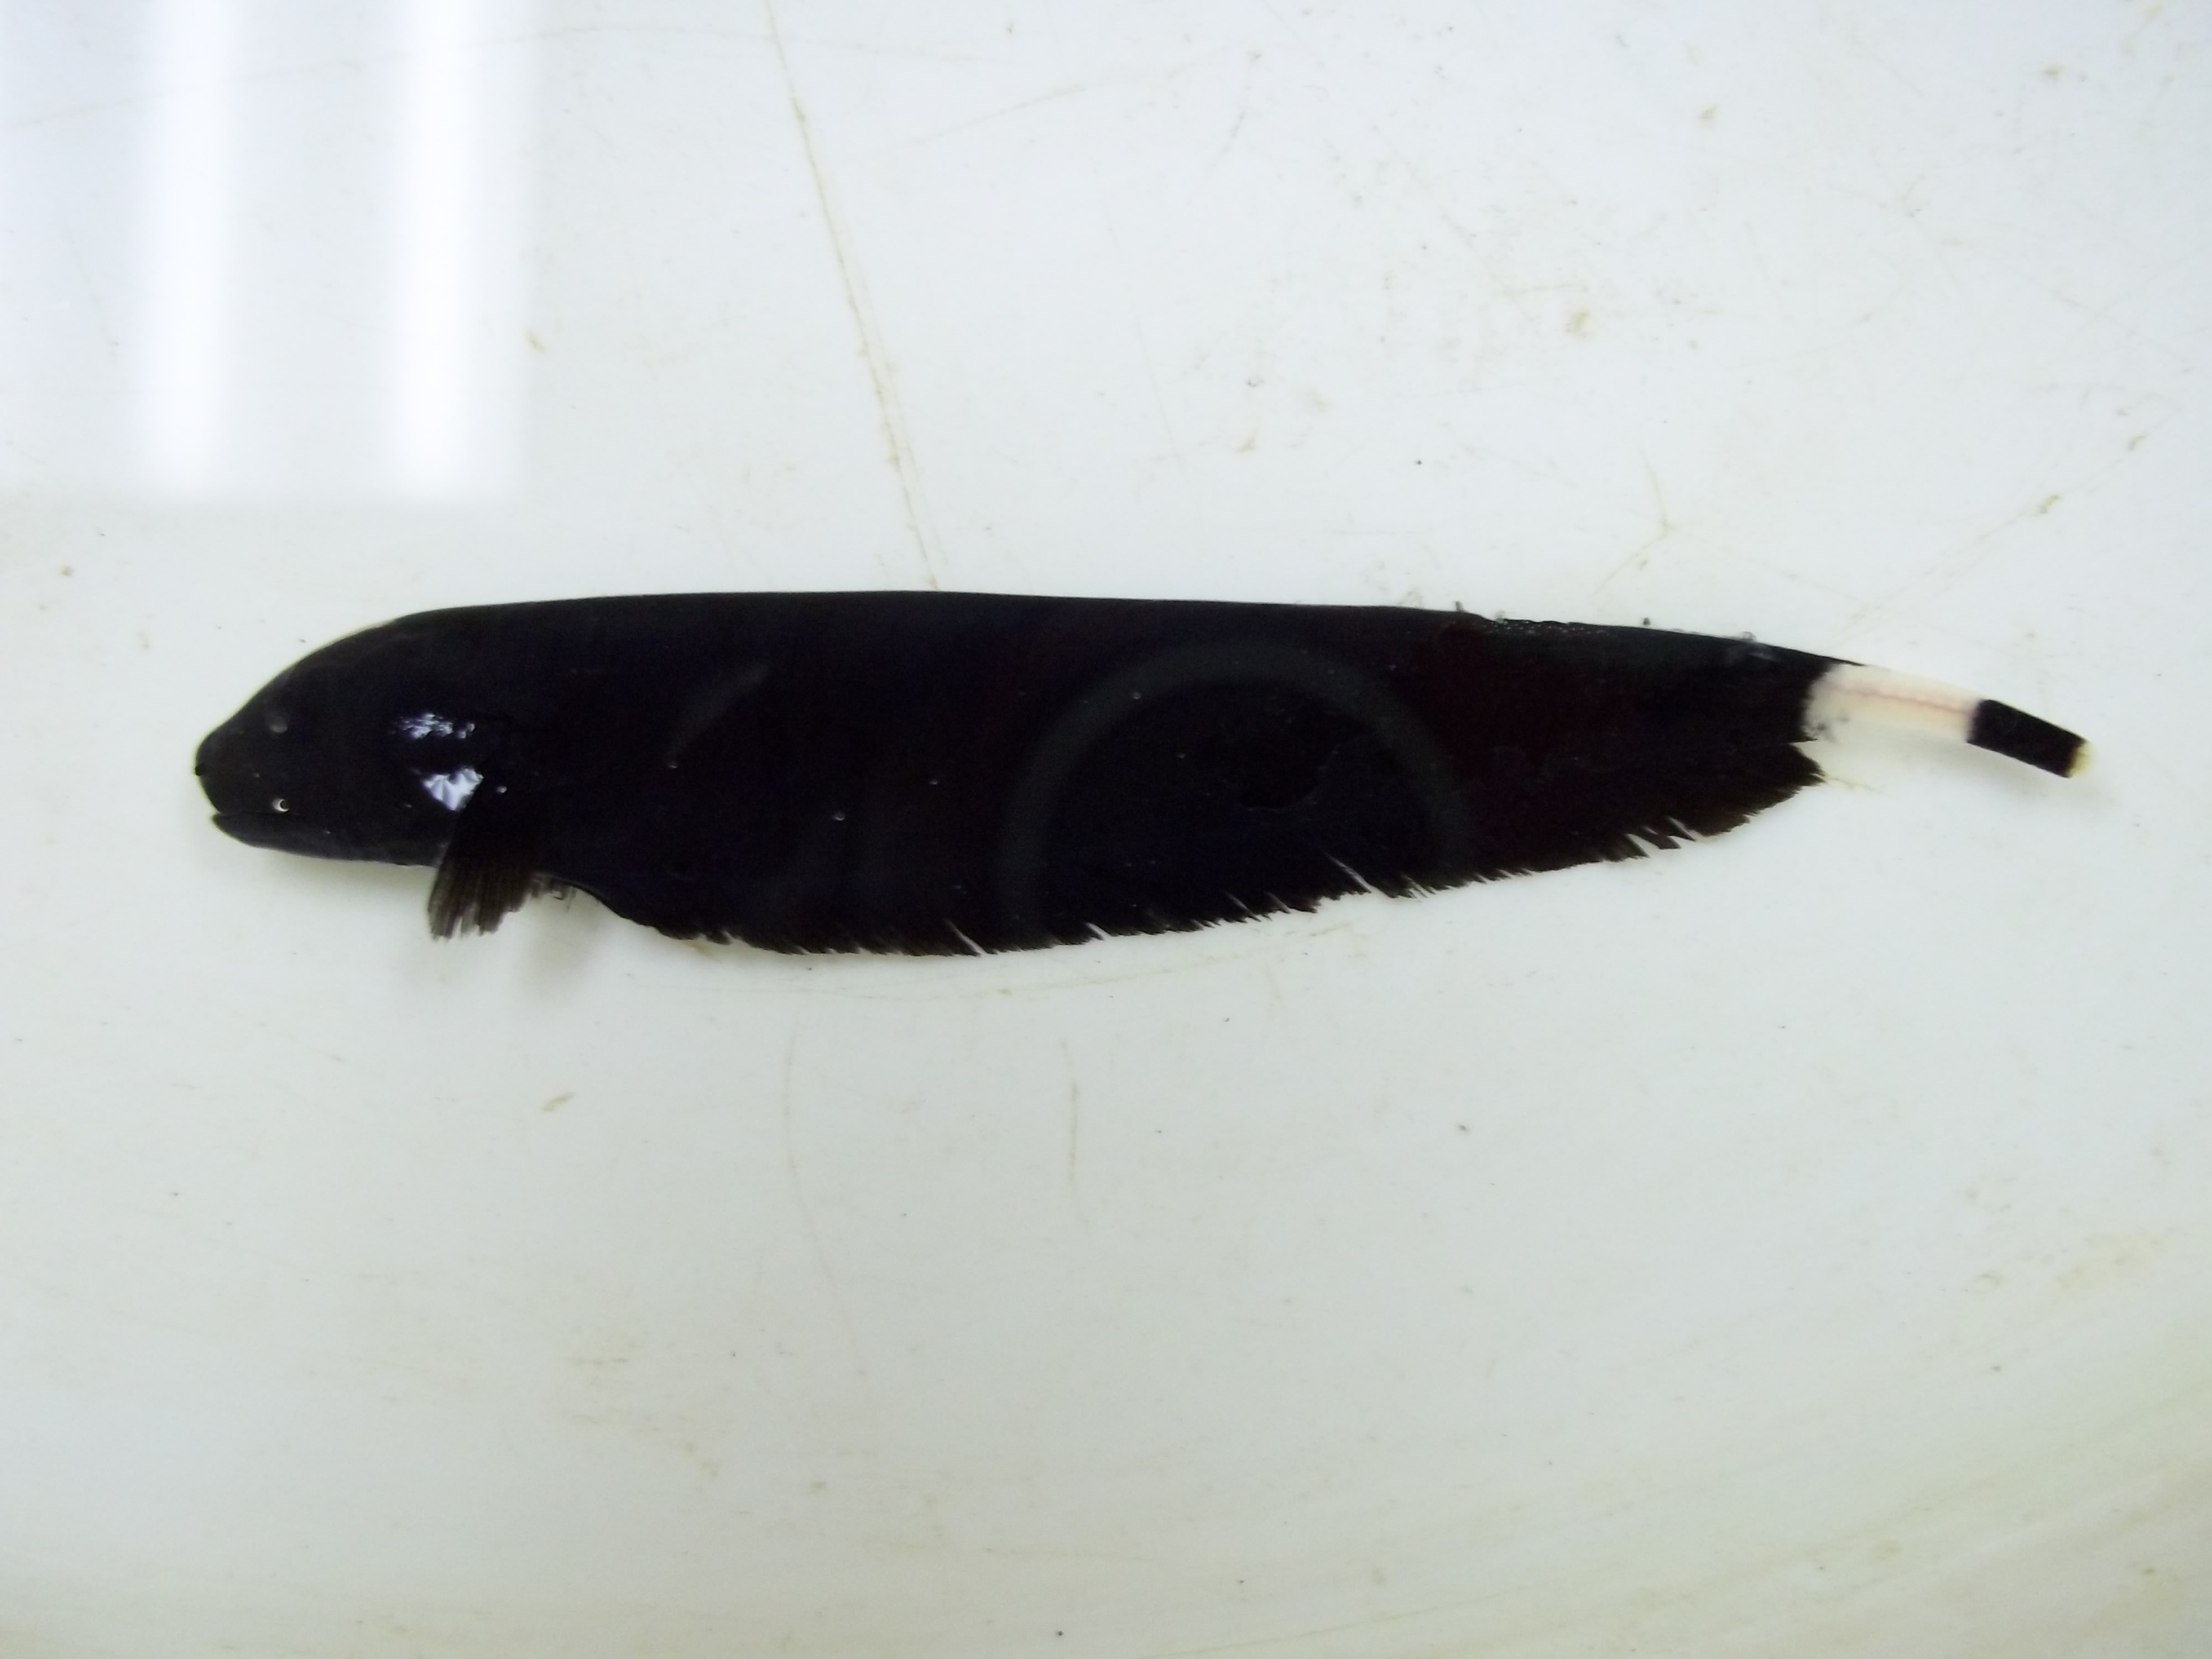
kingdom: Animalia
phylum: Chordata
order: Gymnotiformes
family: Apteronotidae
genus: Apteronotus
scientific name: Apteronotus albifrons
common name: Black ghost
